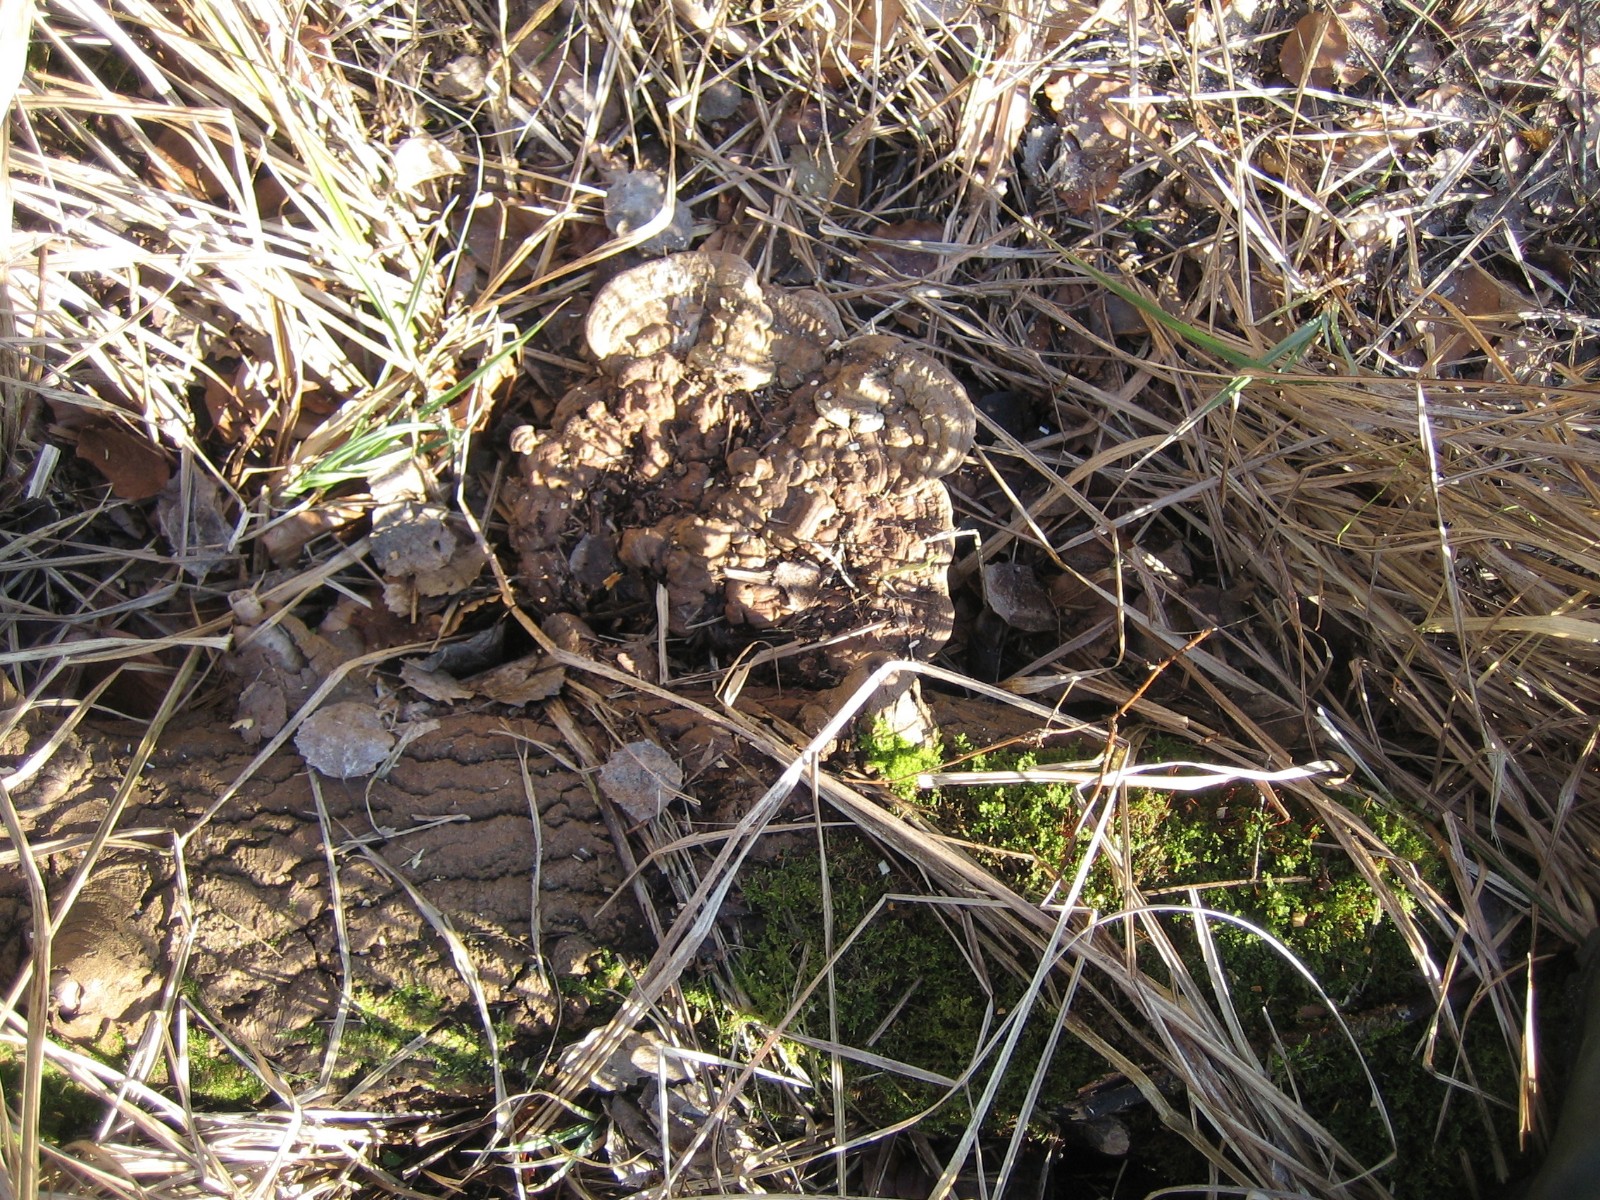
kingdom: Fungi
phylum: Basidiomycota
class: Agaricomycetes
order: Polyporales
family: Polyporaceae
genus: Ganoderma
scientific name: Ganoderma applanatum
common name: flad lakporesvamp
